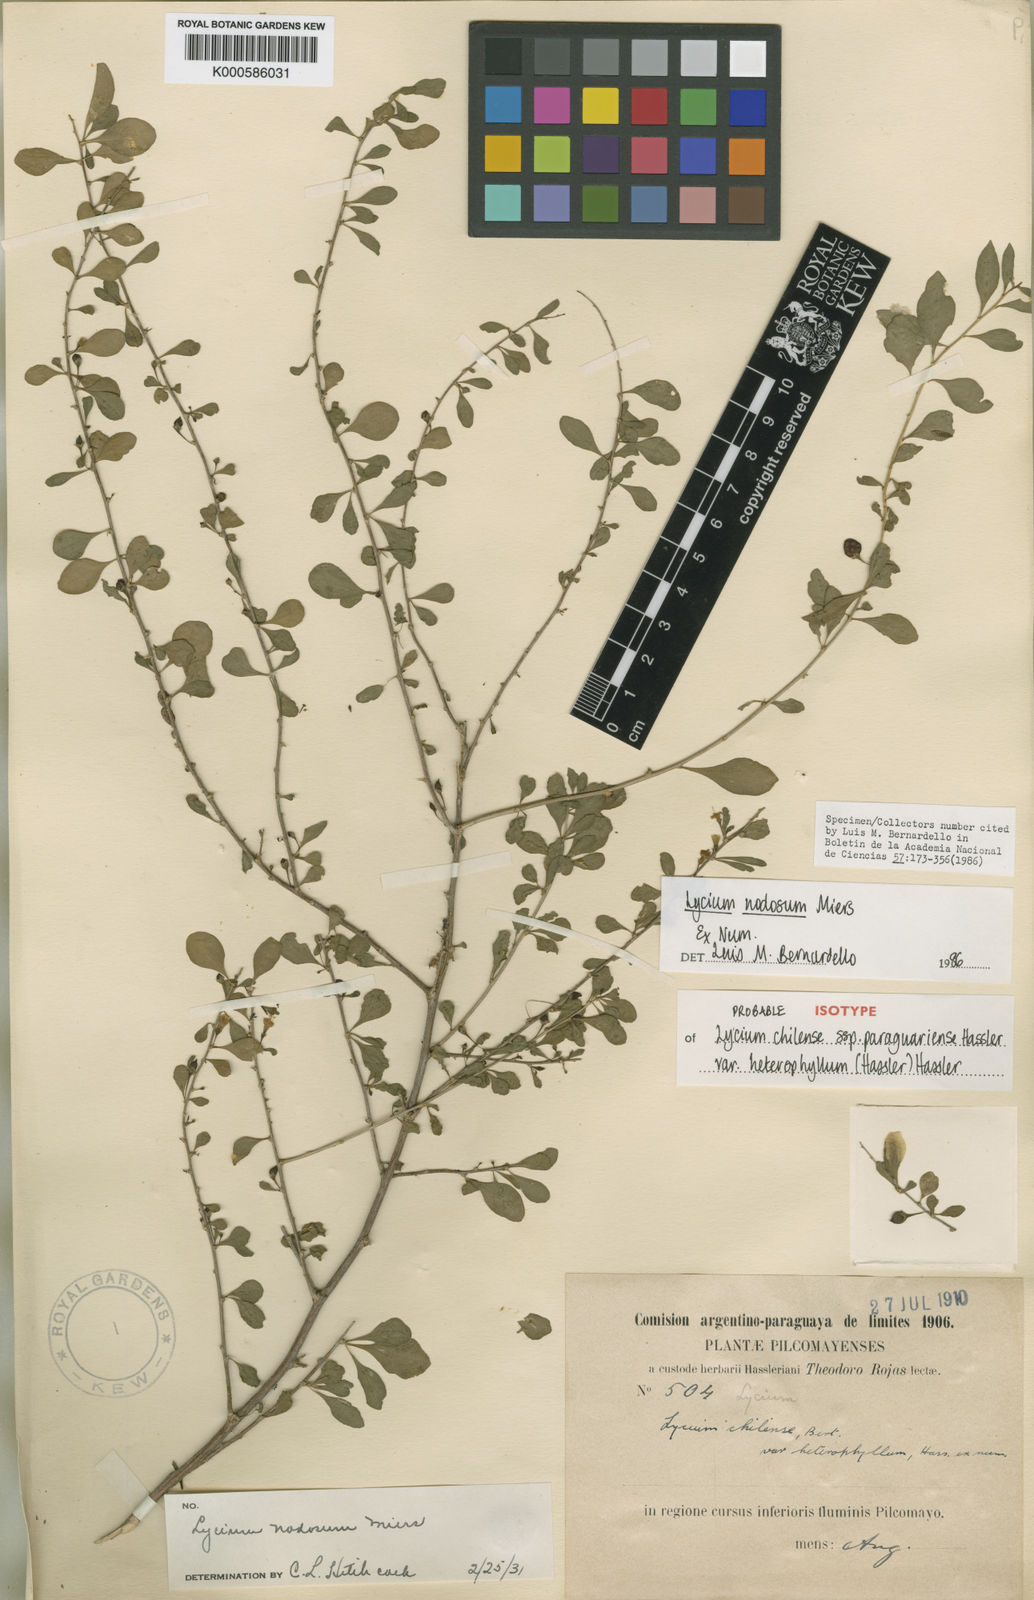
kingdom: Plantae
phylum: Tracheophyta
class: Magnoliopsida
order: Solanales
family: Solanaceae
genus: Lycium
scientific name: Lycium
